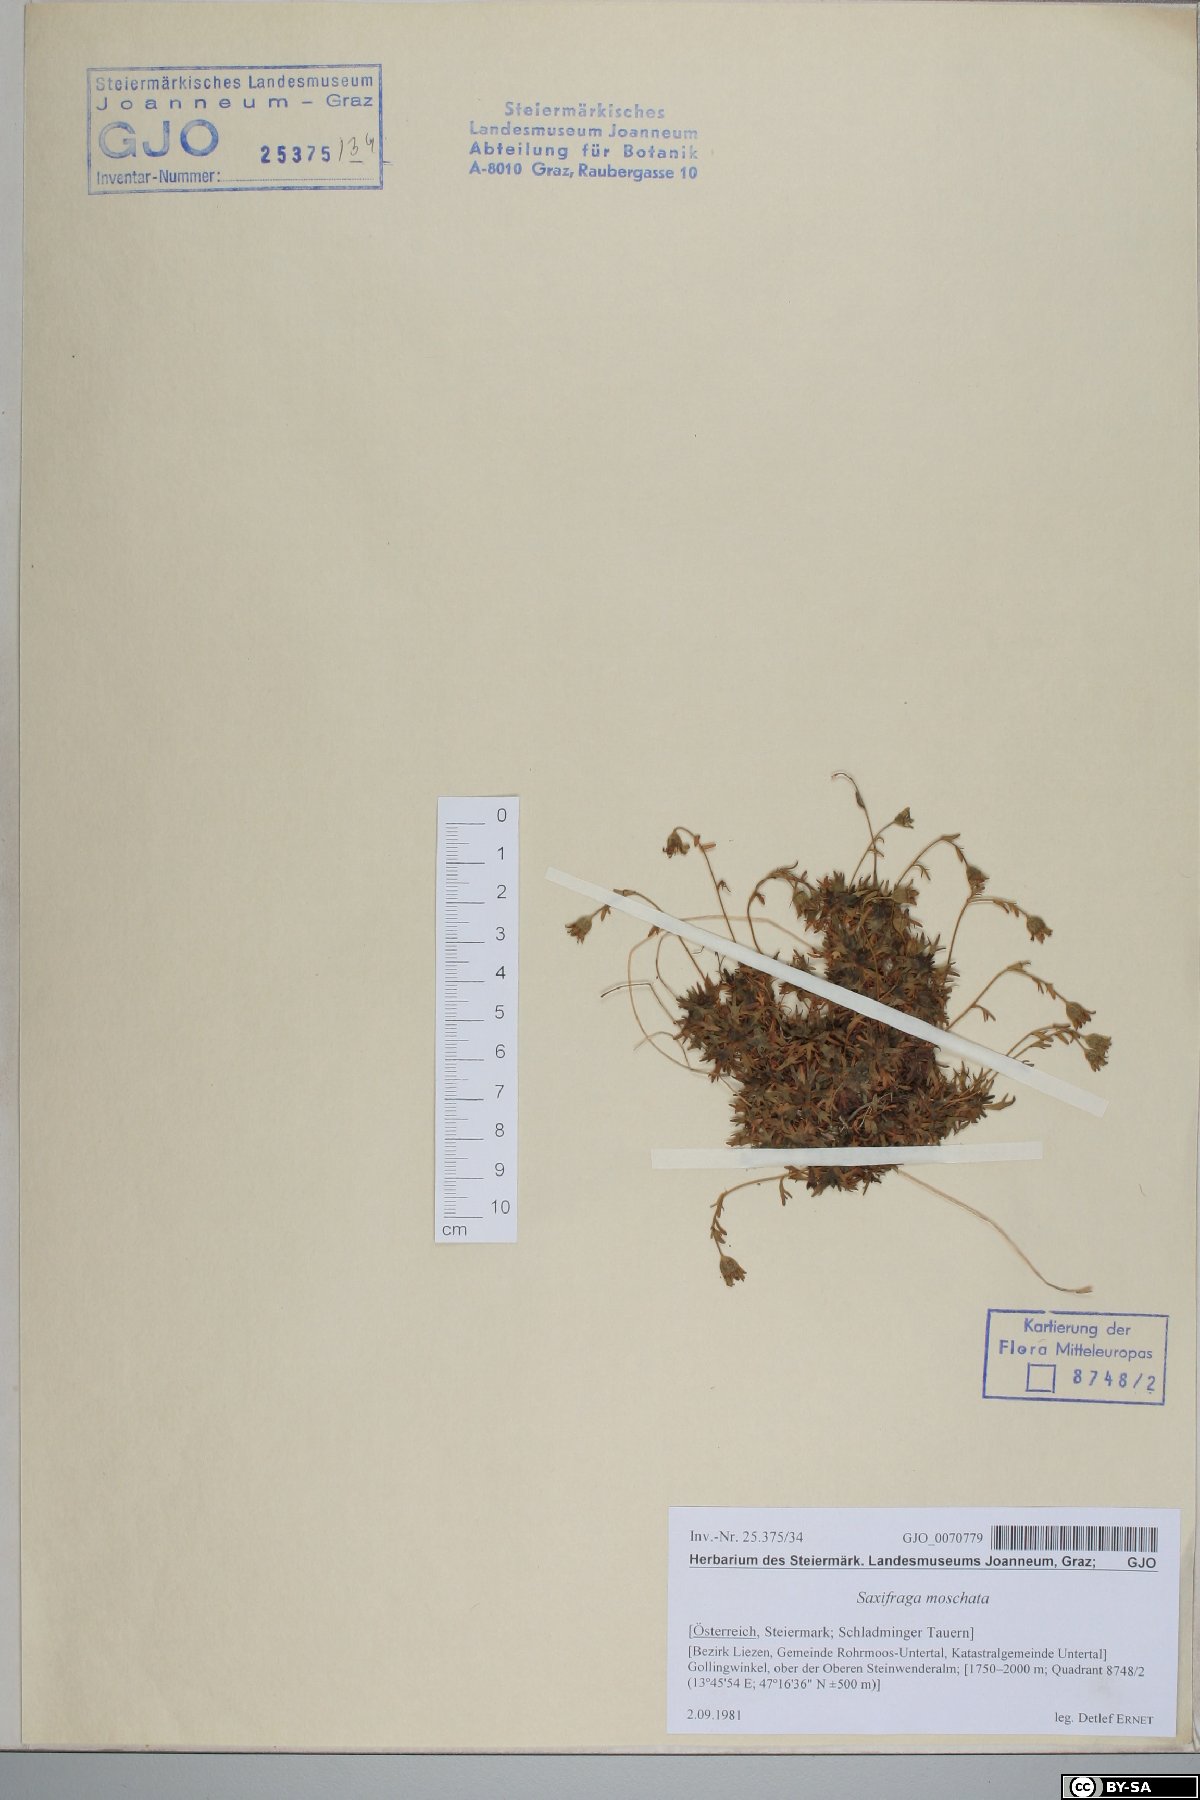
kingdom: Plantae
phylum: Tracheophyta
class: Magnoliopsida
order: Saxifragales
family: Saxifragaceae
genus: Saxifraga
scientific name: Saxifraga moschata
